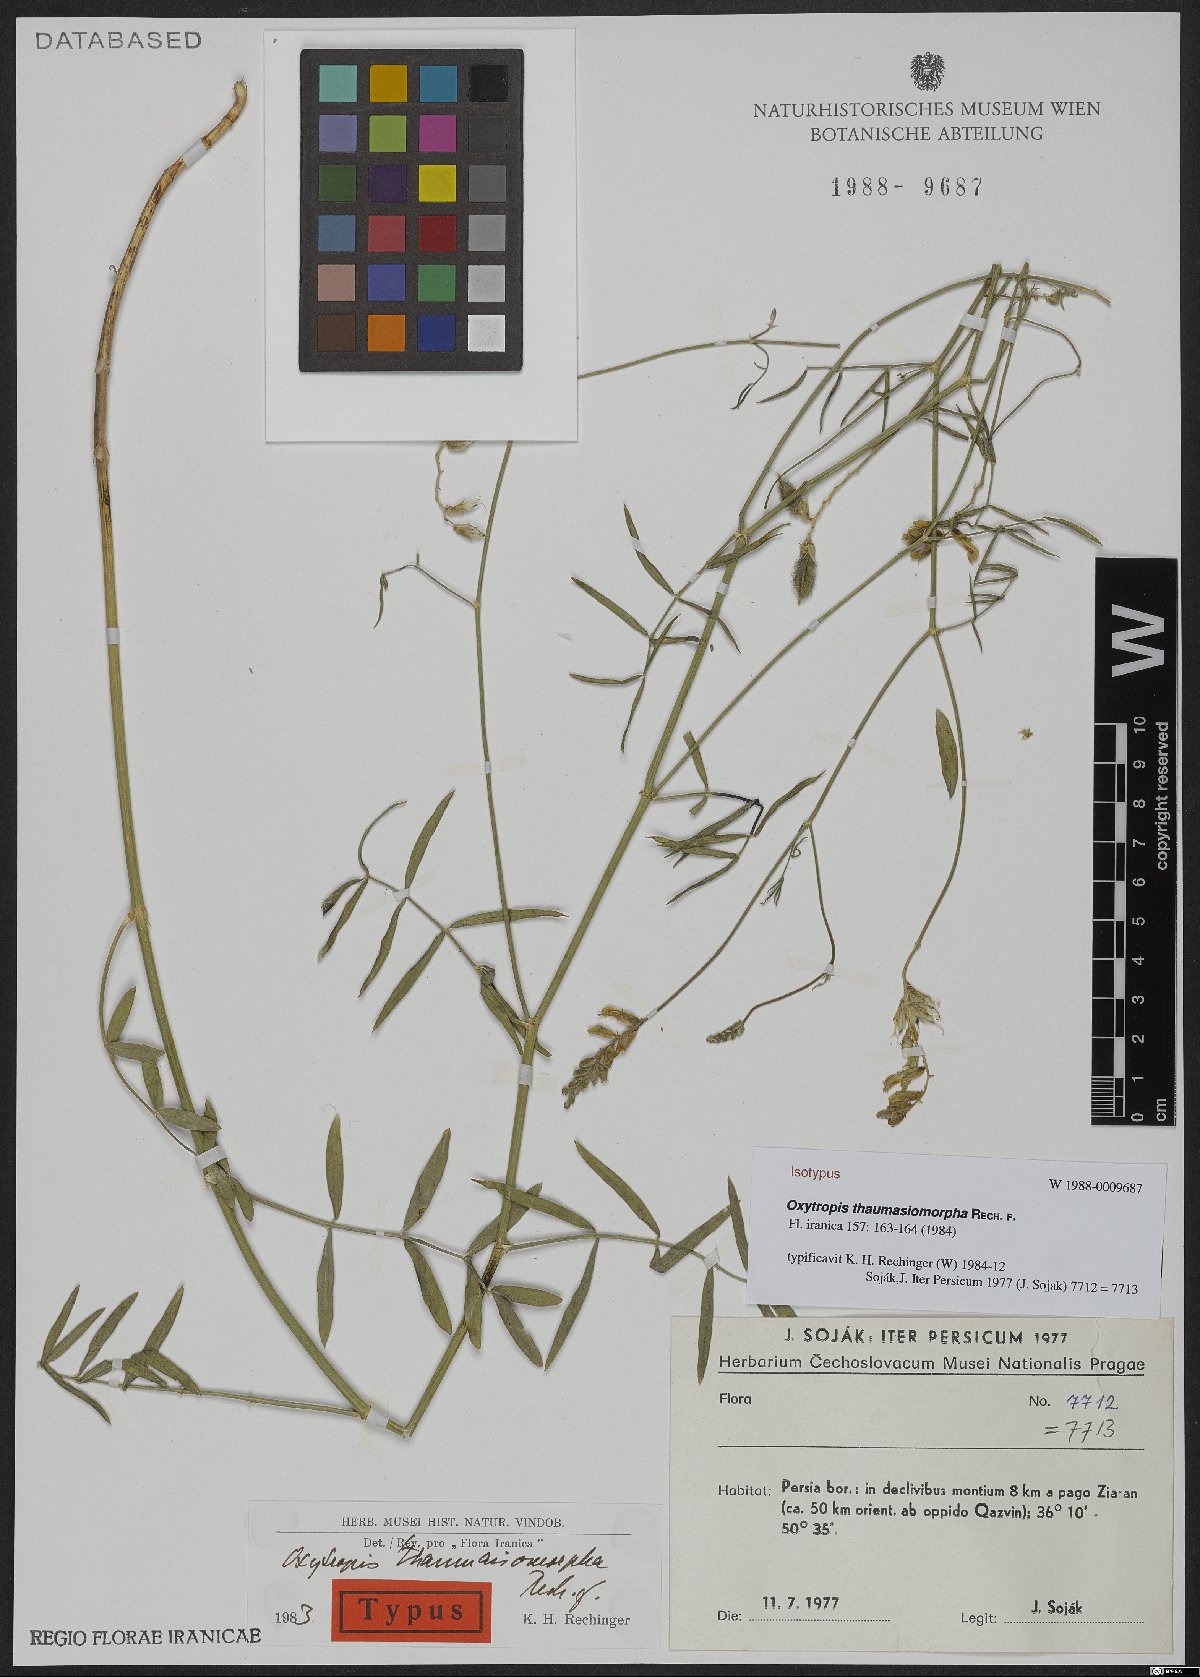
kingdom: Plantae
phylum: Tracheophyta
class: Magnoliopsida
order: Fabales
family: Fabaceae
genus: Astragalus
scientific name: Astragalus podocarpus
